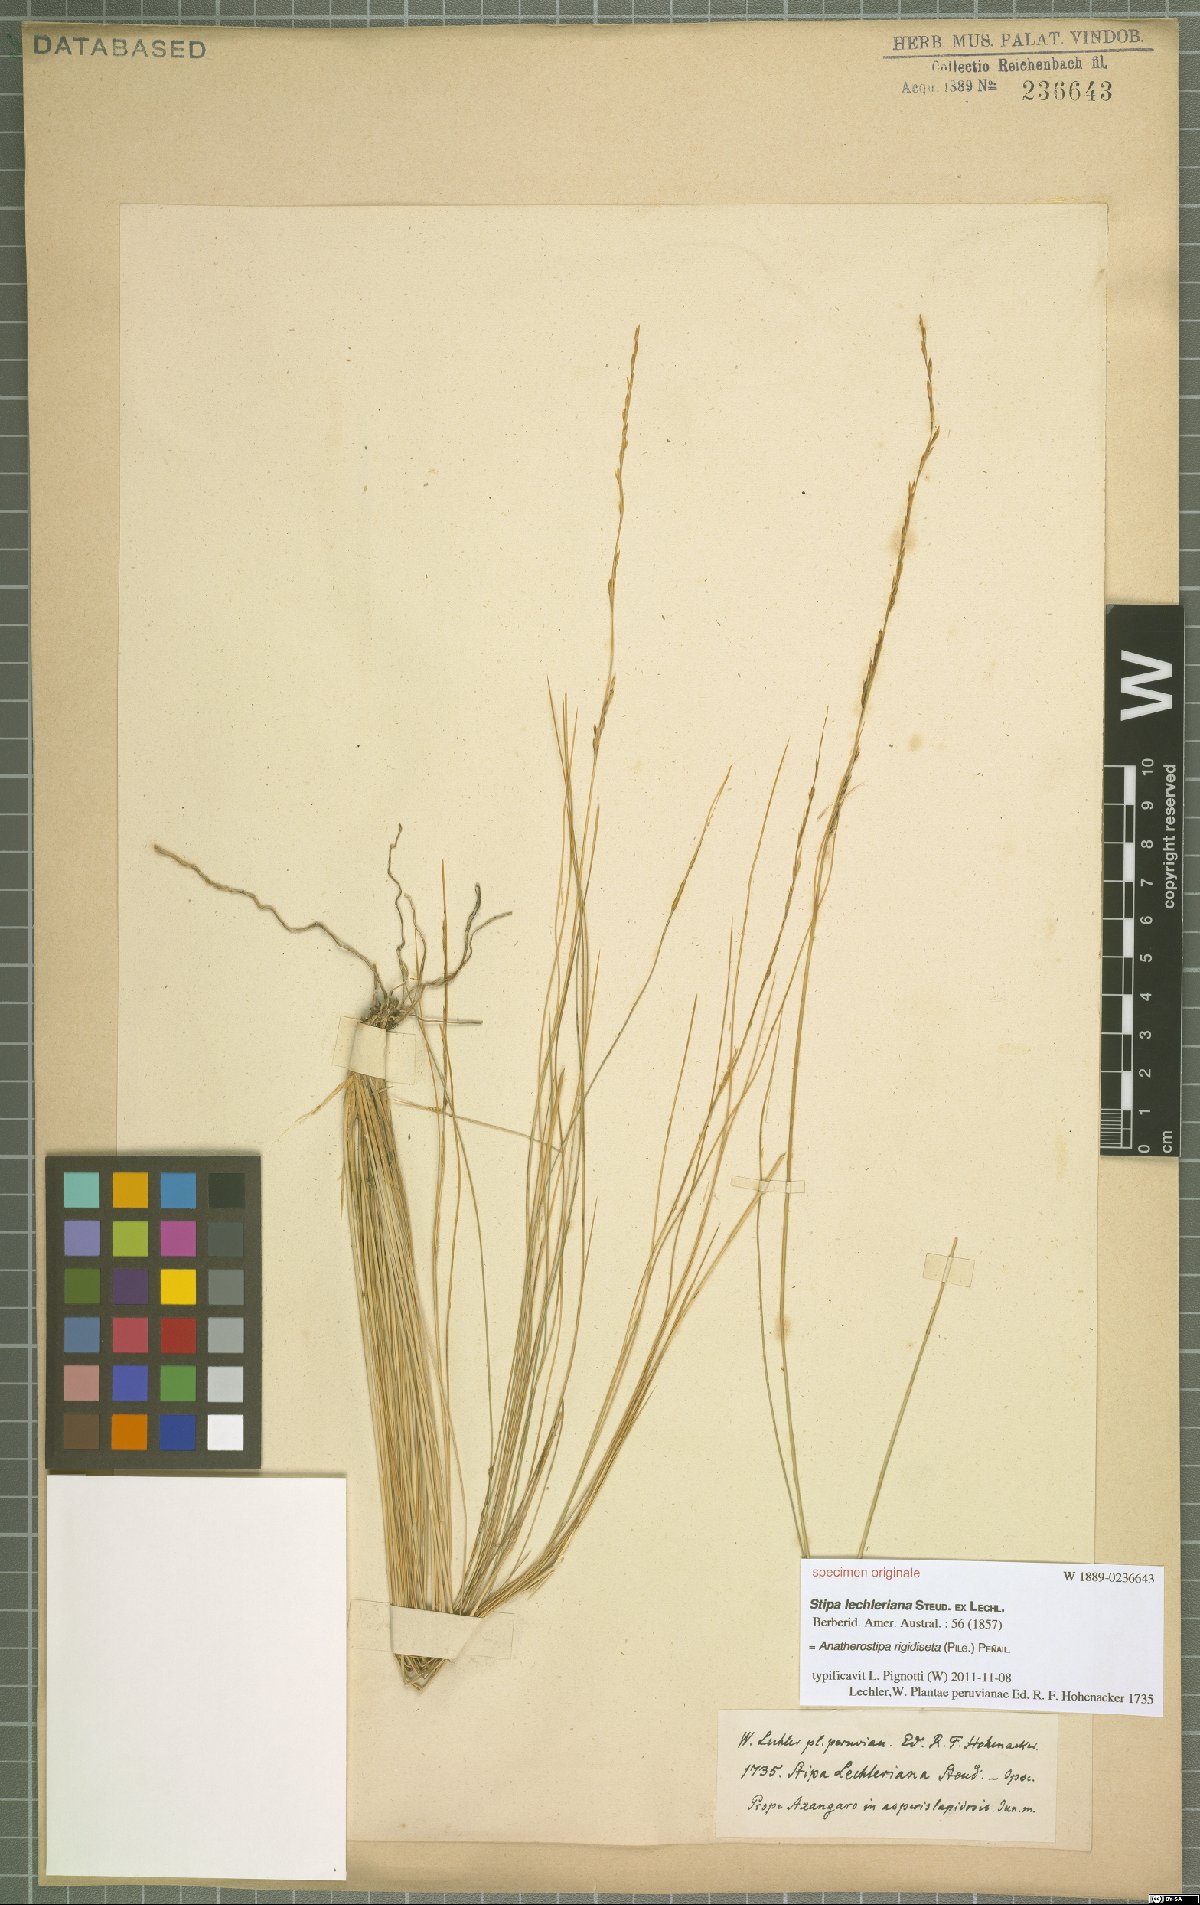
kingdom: Plantae
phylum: Tracheophyta
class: Liliopsida
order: Poales
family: Poaceae
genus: Stipa
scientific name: Stipa rigidiseta
